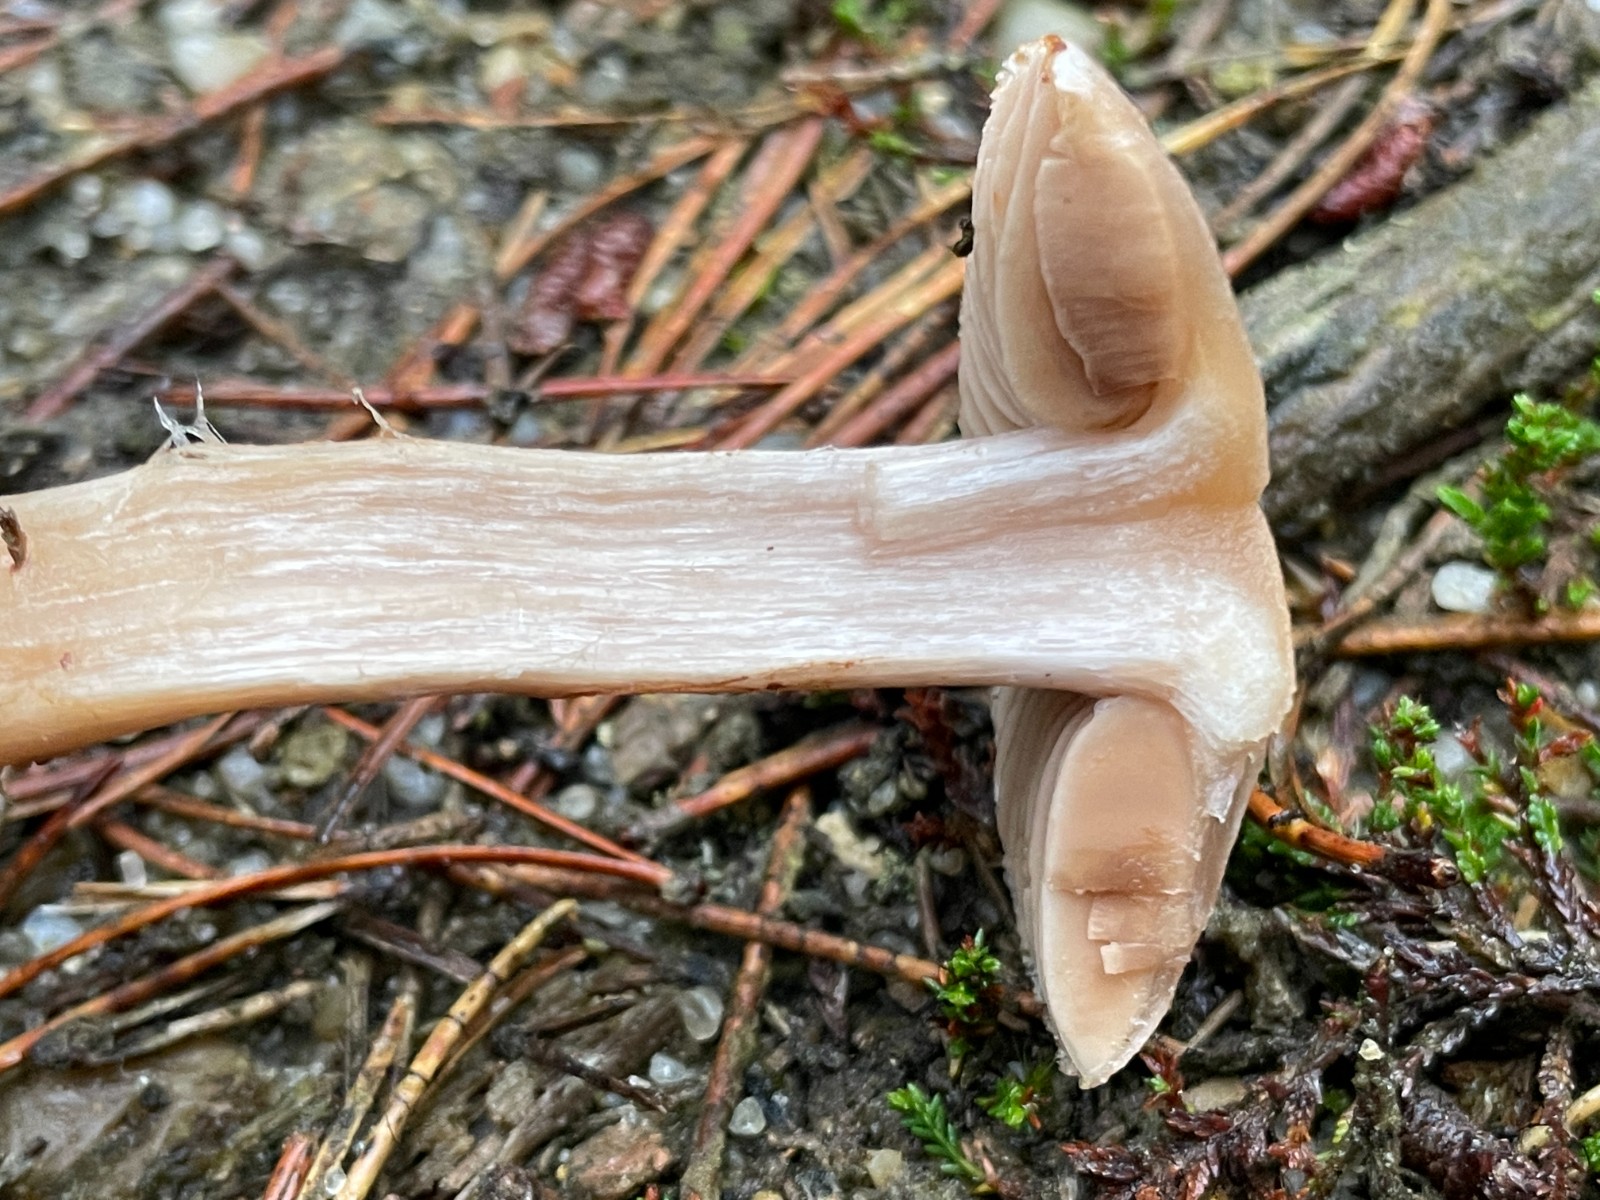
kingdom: Fungi
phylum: Basidiomycota
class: Agaricomycetes
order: Agaricales
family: Cortinariaceae
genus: Cortinarius
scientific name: Cortinarius malachius
